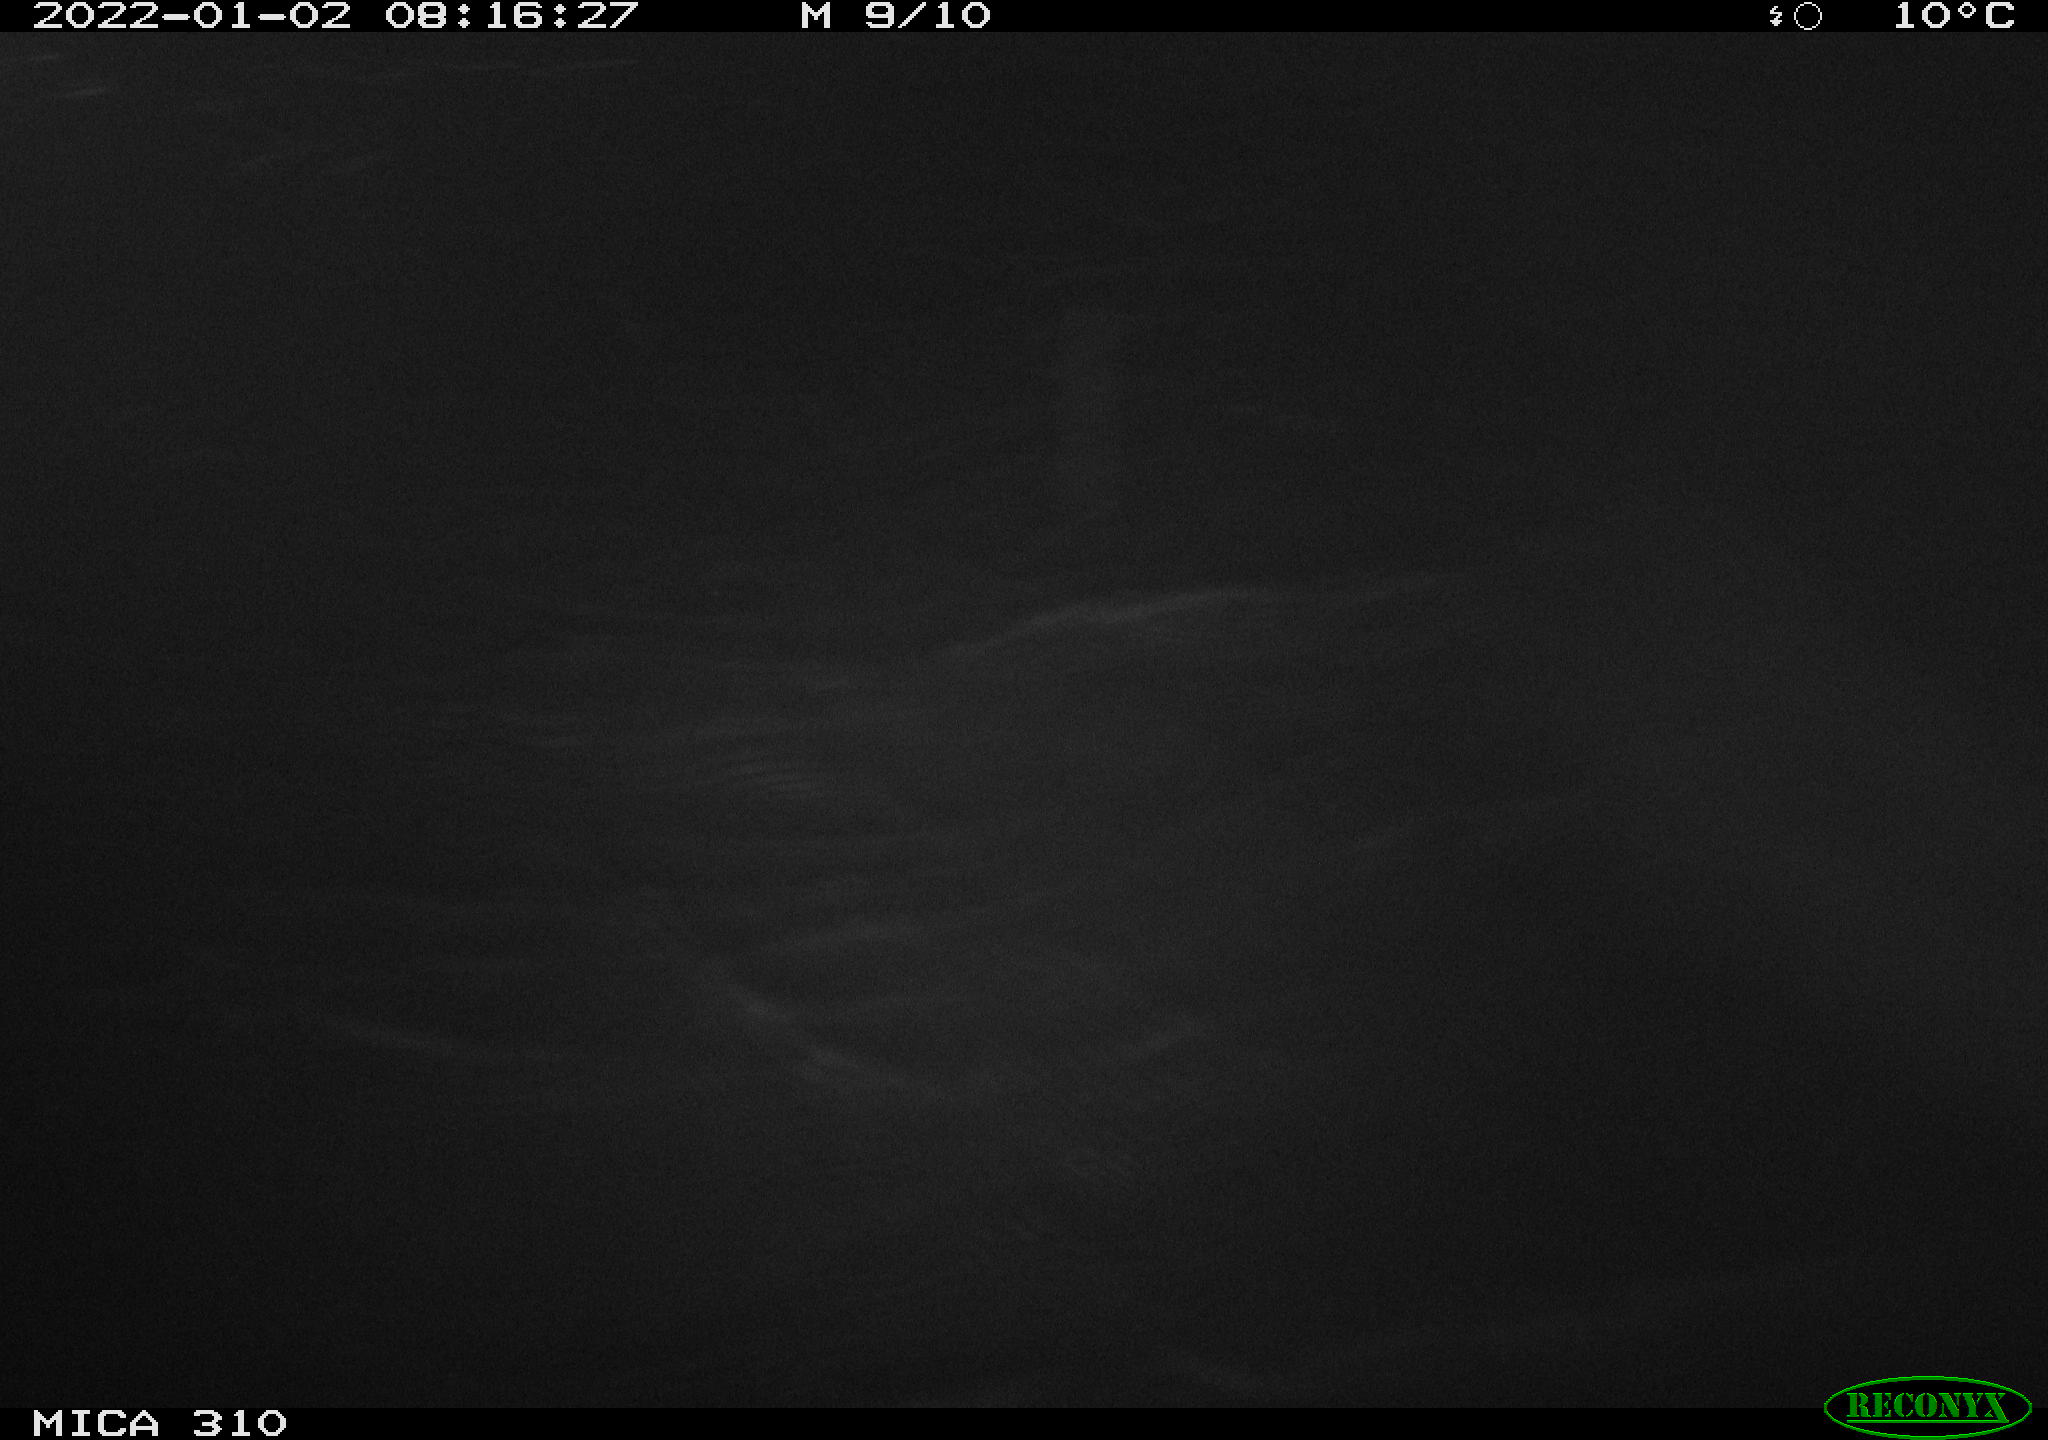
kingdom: Animalia
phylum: Chordata
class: Aves
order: Gruiformes
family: Rallidae
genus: Fulica
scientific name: Fulica atra
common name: Eurasian coot
